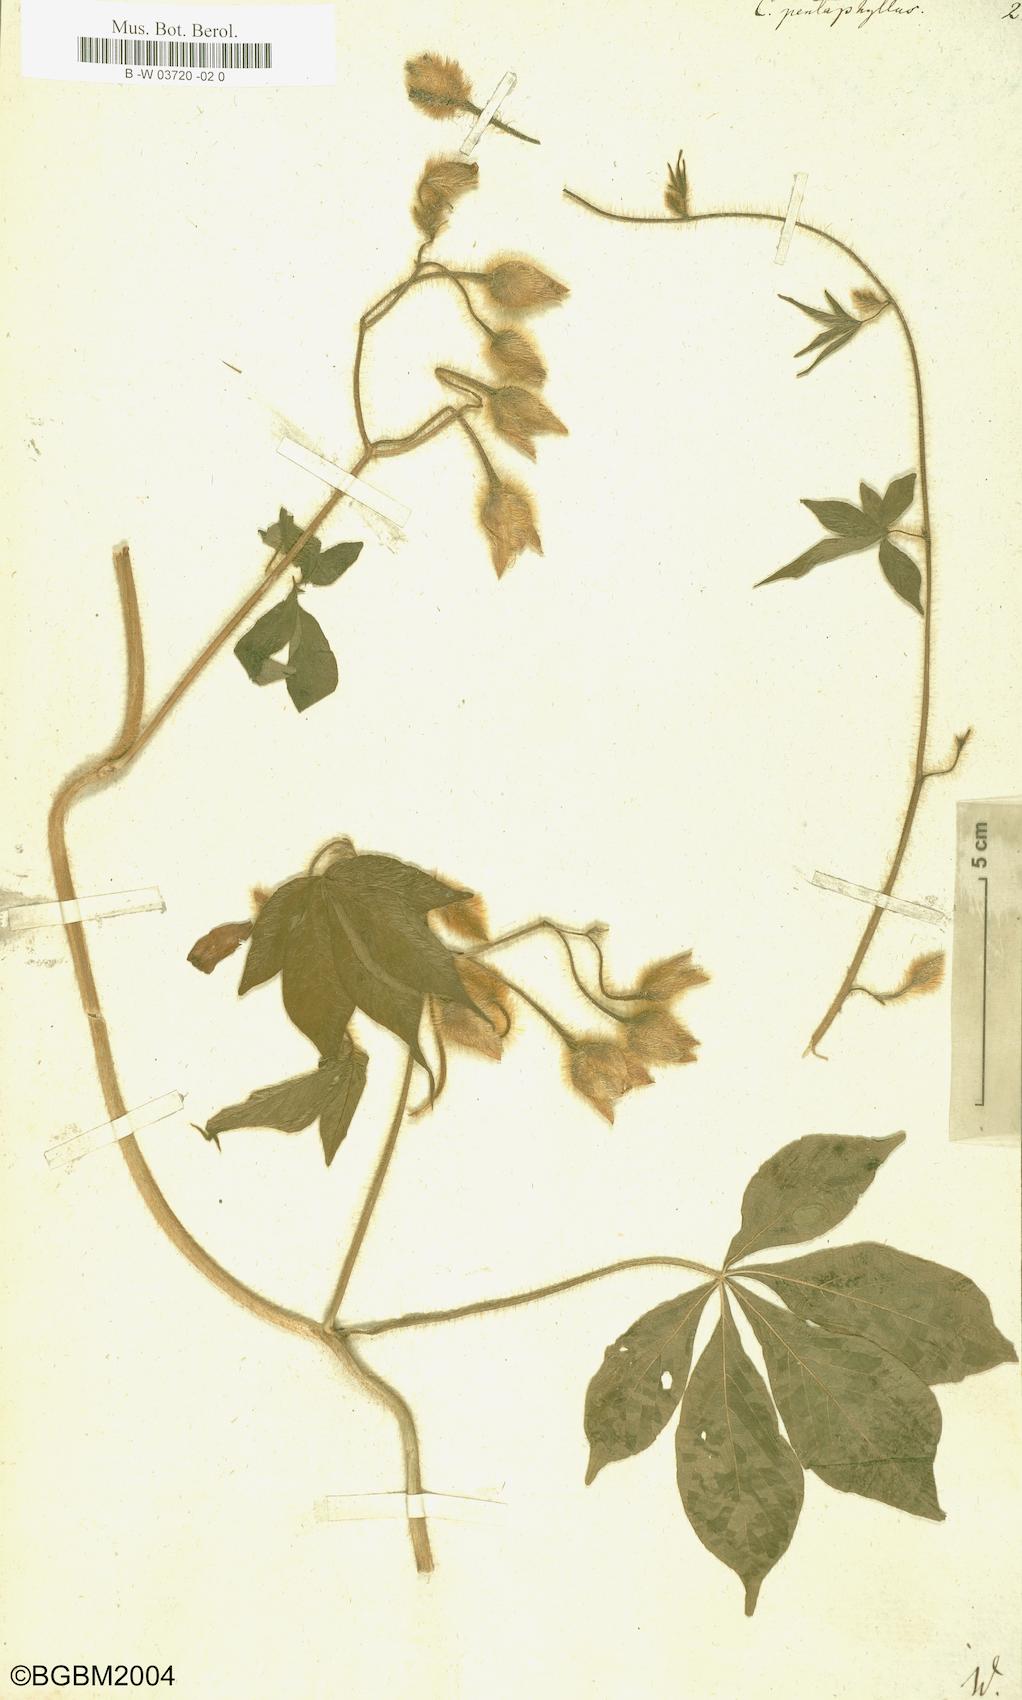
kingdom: Plantae
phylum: Tracheophyta
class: Magnoliopsida
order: Solanales
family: Convolvulaceae
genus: Distimake
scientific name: Distimake
